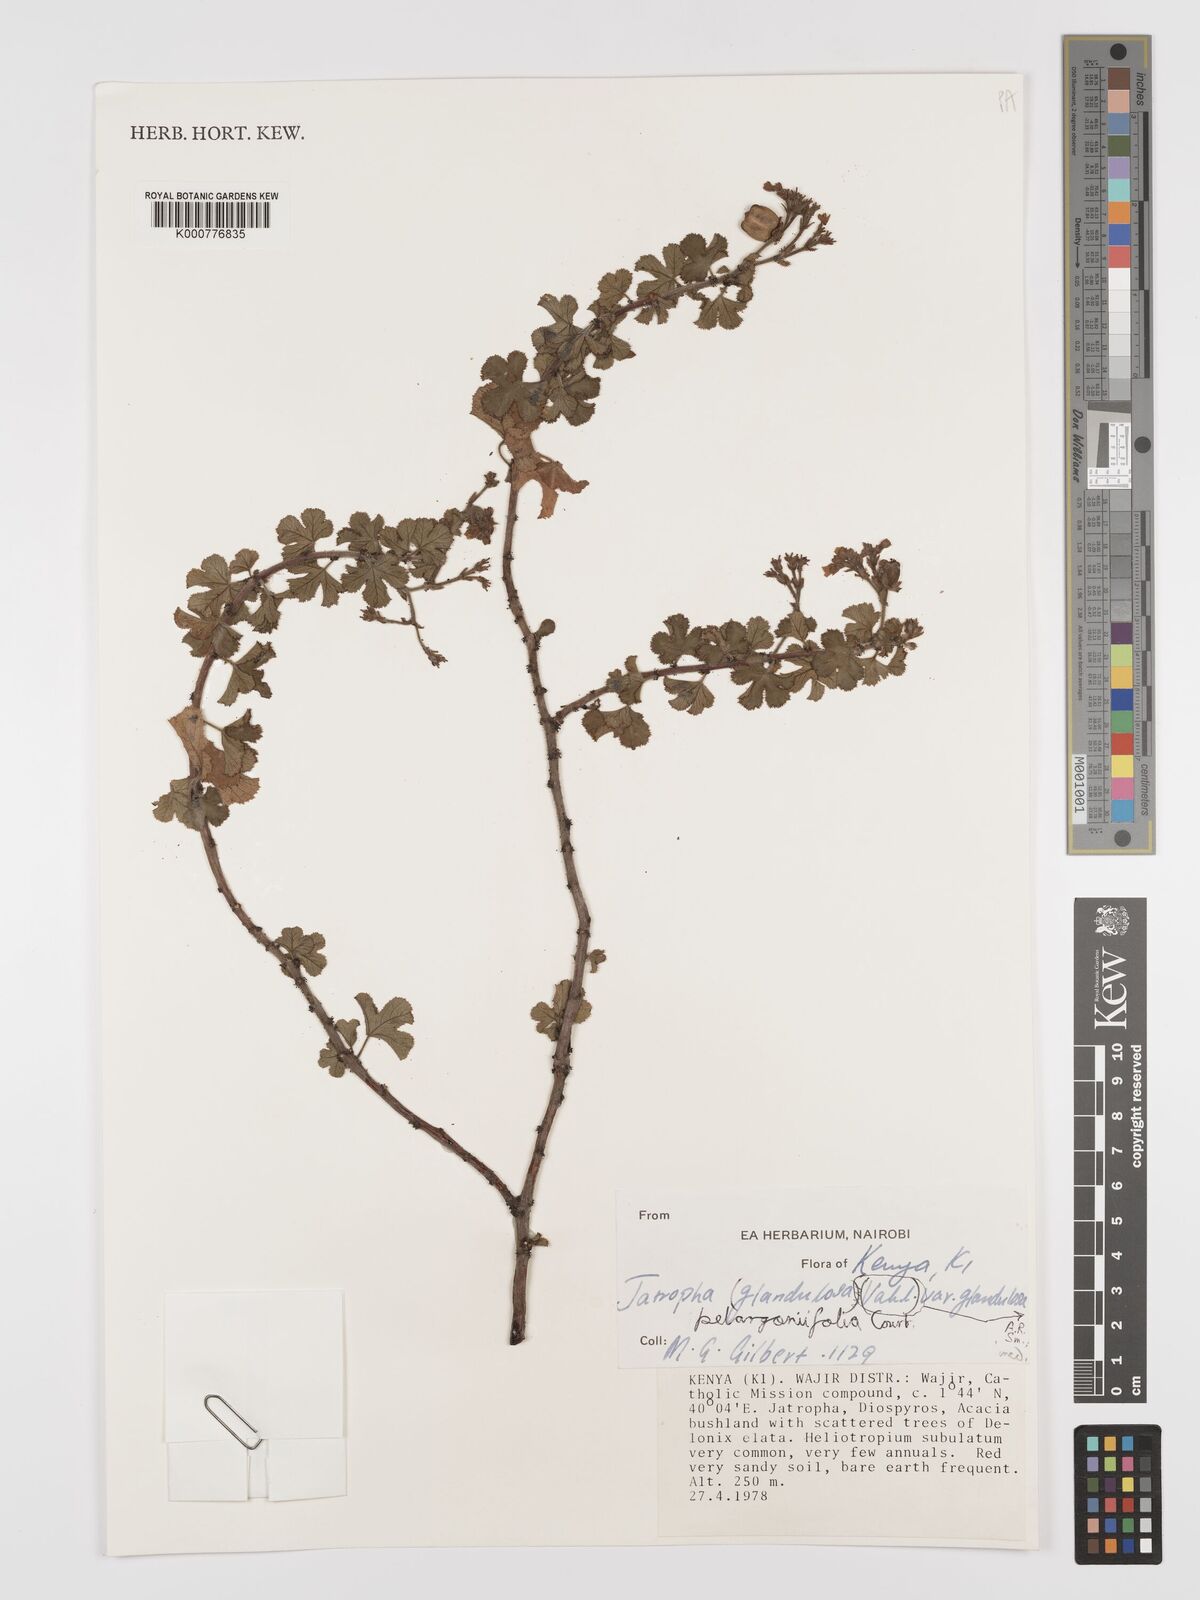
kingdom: Plantae
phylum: Tracheophyta
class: Magnoliopsida
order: Malpighiales
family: Euphorbiaceae
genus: Jatropha
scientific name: Jatropha pelargoniifolia
